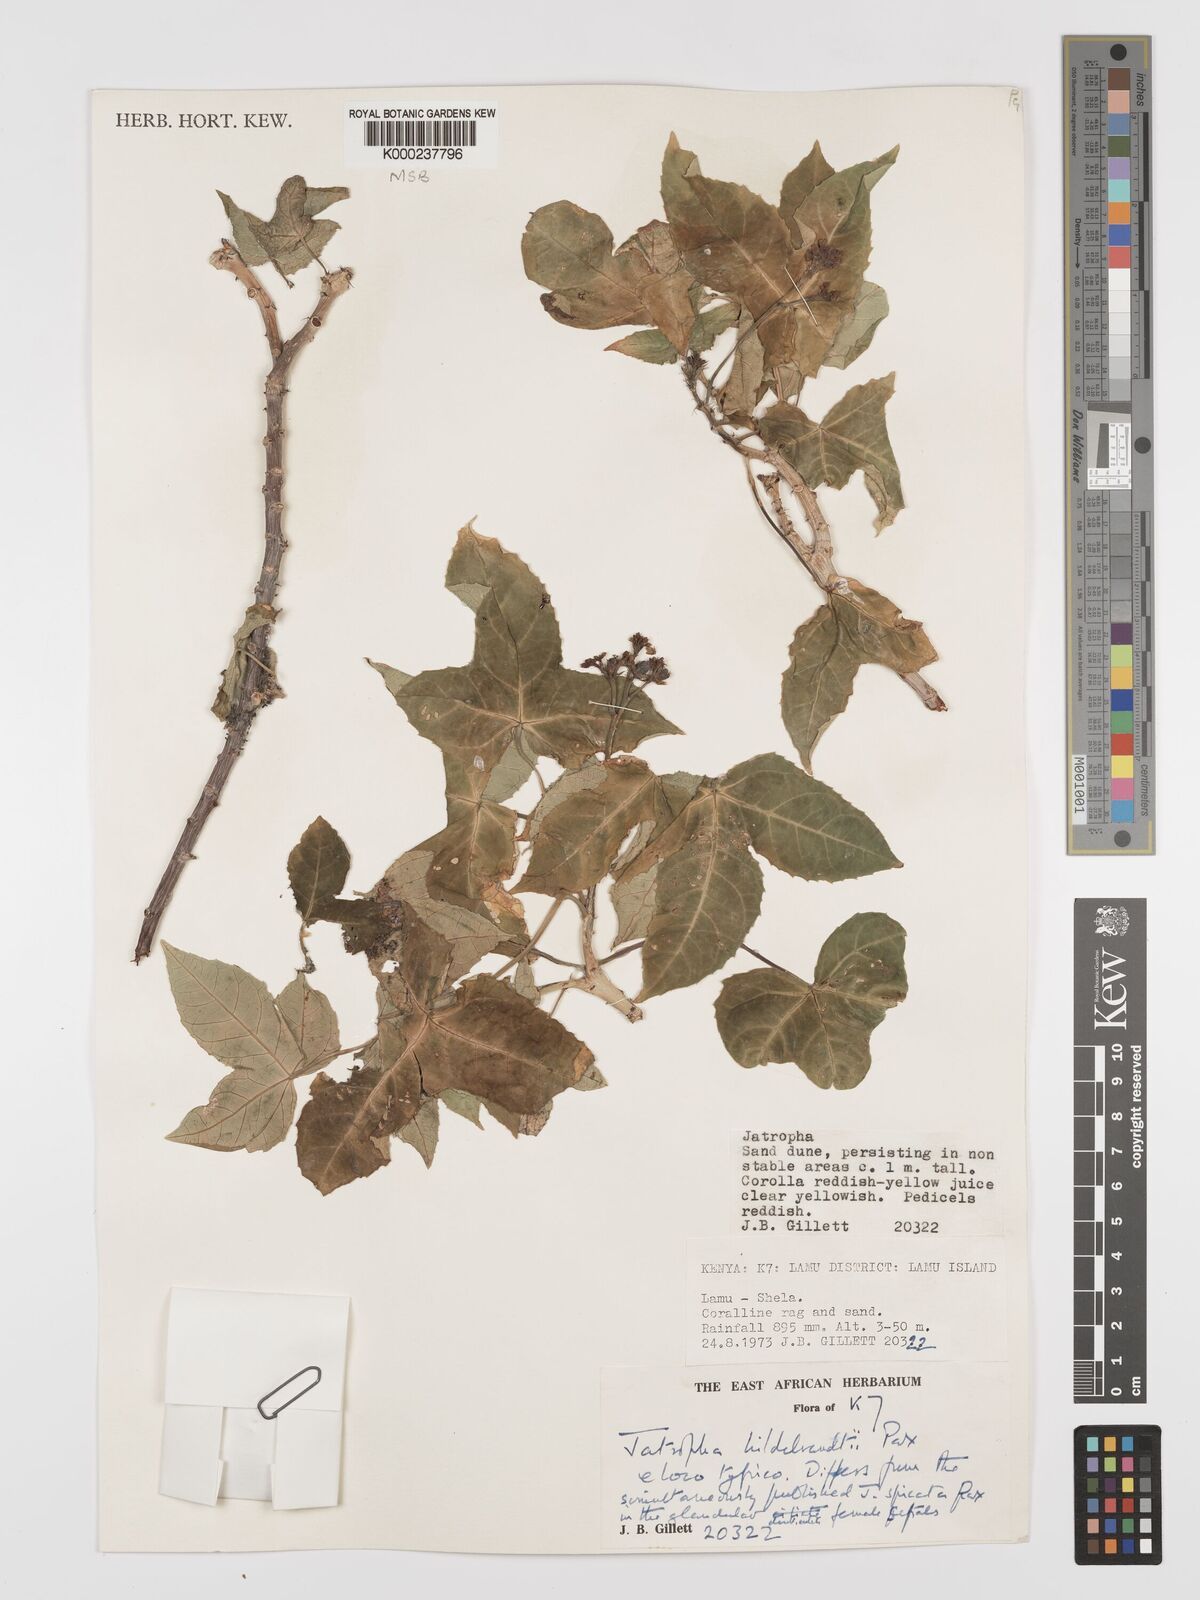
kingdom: Plantae
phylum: Tracheophyta
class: Magnoliopsida
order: Malpighiales
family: Euphorbiaceae
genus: Jatropha
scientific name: Jatropha hildebrandtii
